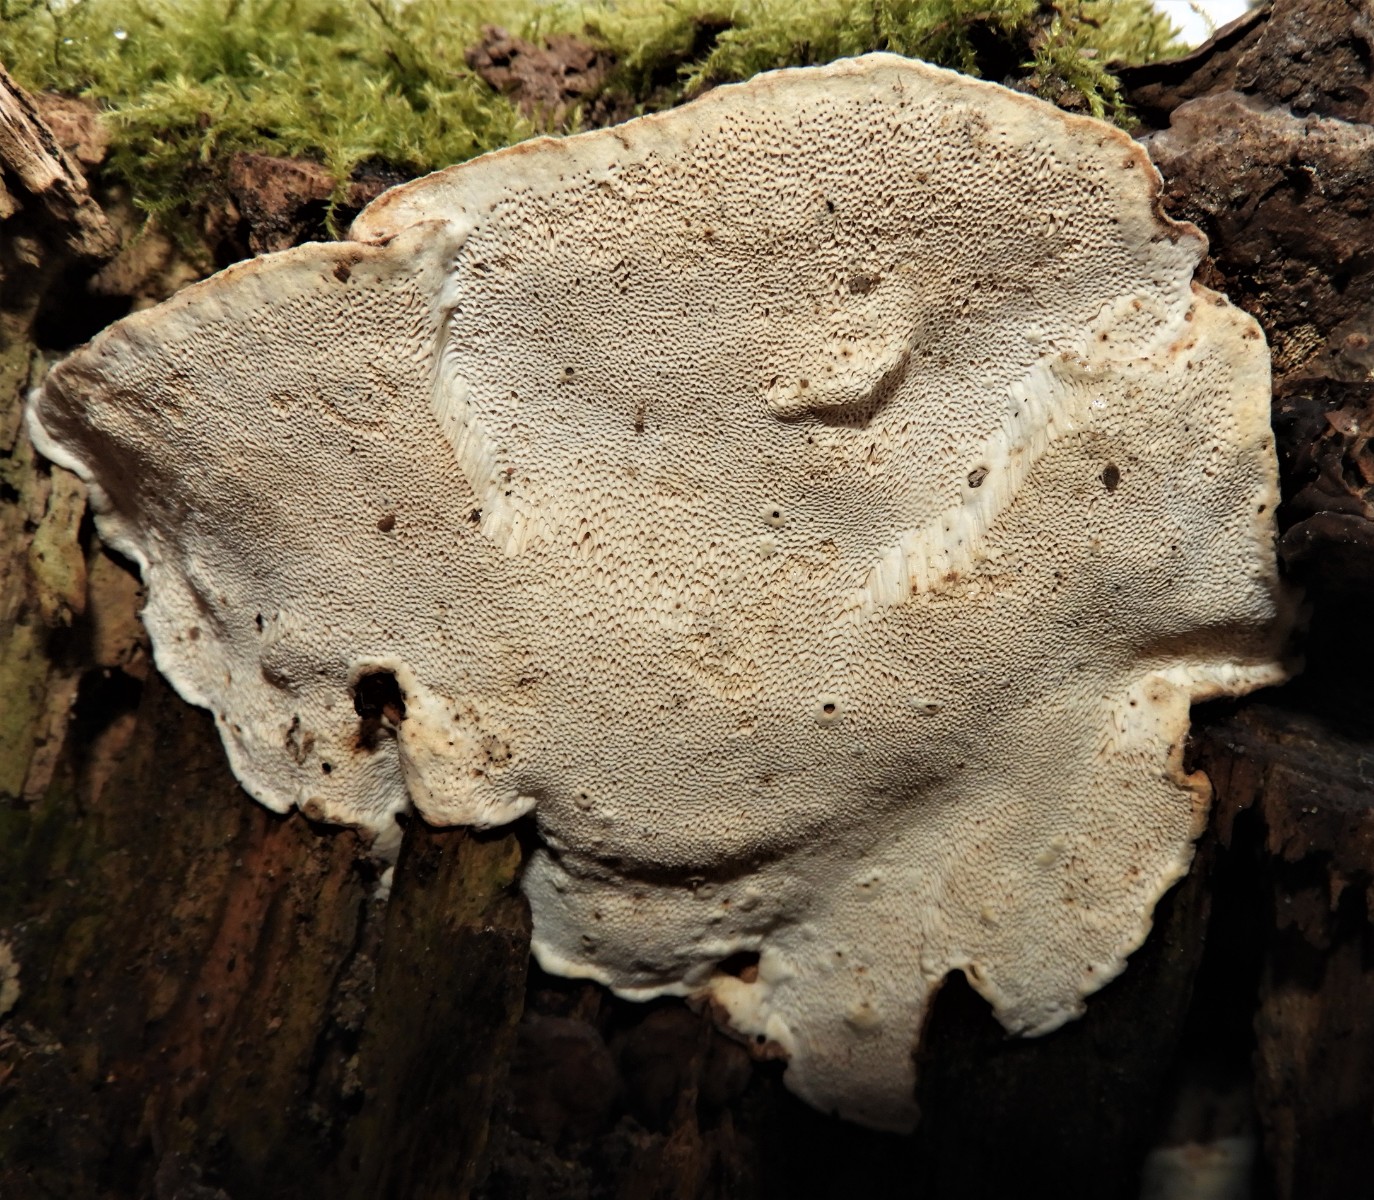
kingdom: Fungi
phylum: Basidiomycota
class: Agaricomycetes
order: Russulales
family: Bondarzewiaceae
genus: Heterobasidion
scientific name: Heterobasidion annosum
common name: almindelig rodfordærver
